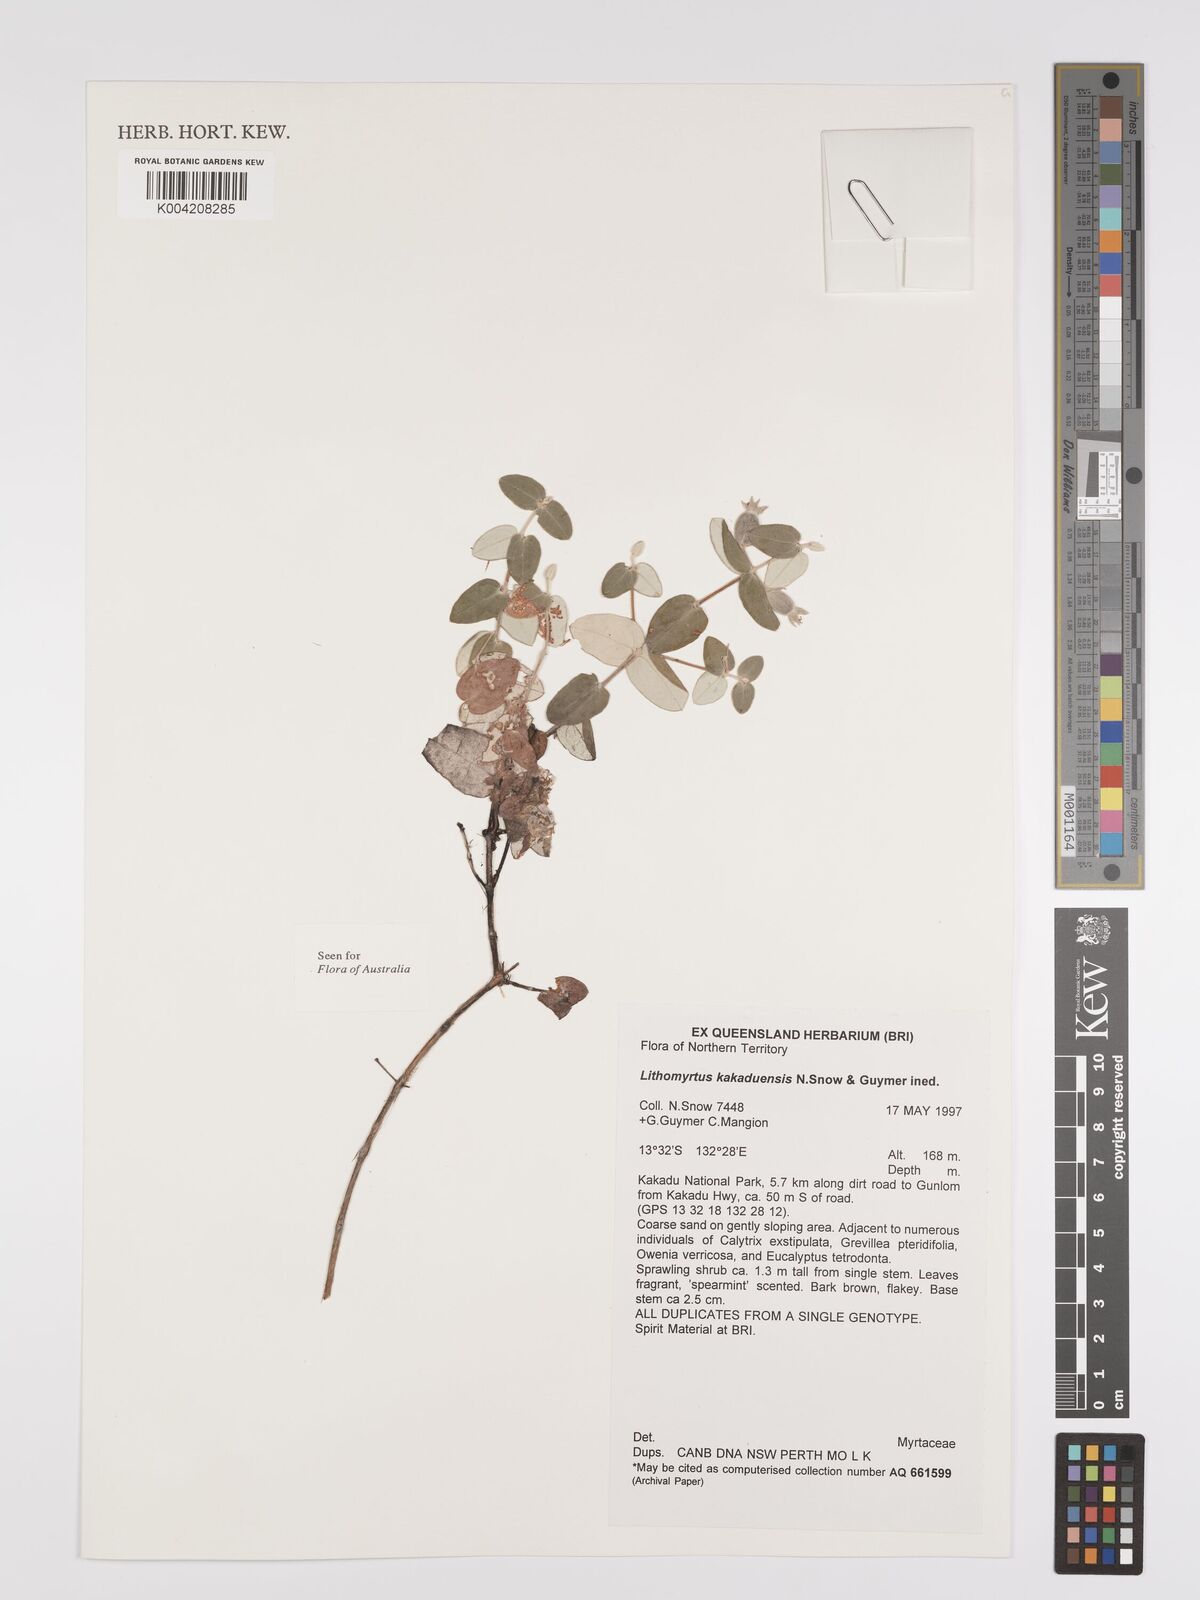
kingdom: Plantae
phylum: Tracheophyta
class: Magnoliopsida
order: Myrtales
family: Myrtaceae
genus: Lithomyrtus
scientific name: Lithomyrtus kakaduensis
